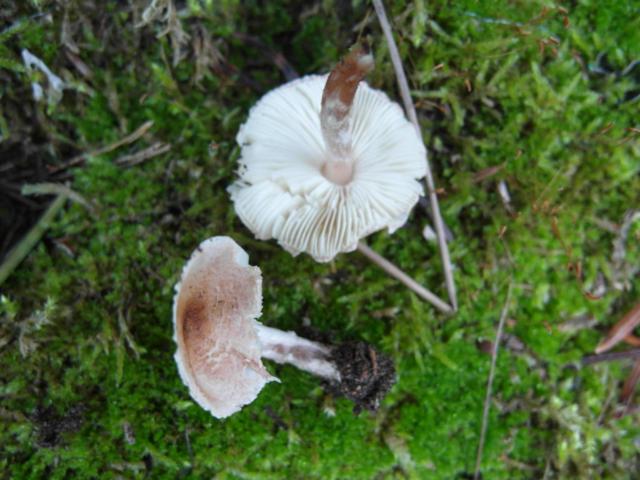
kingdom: Fungi
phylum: Basidiomycota
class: Agaricomycetes
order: Agaricales
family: Agaricaceae
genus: Lepiota
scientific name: Lepiota subincarnata
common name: kødfarvet parasolhat
